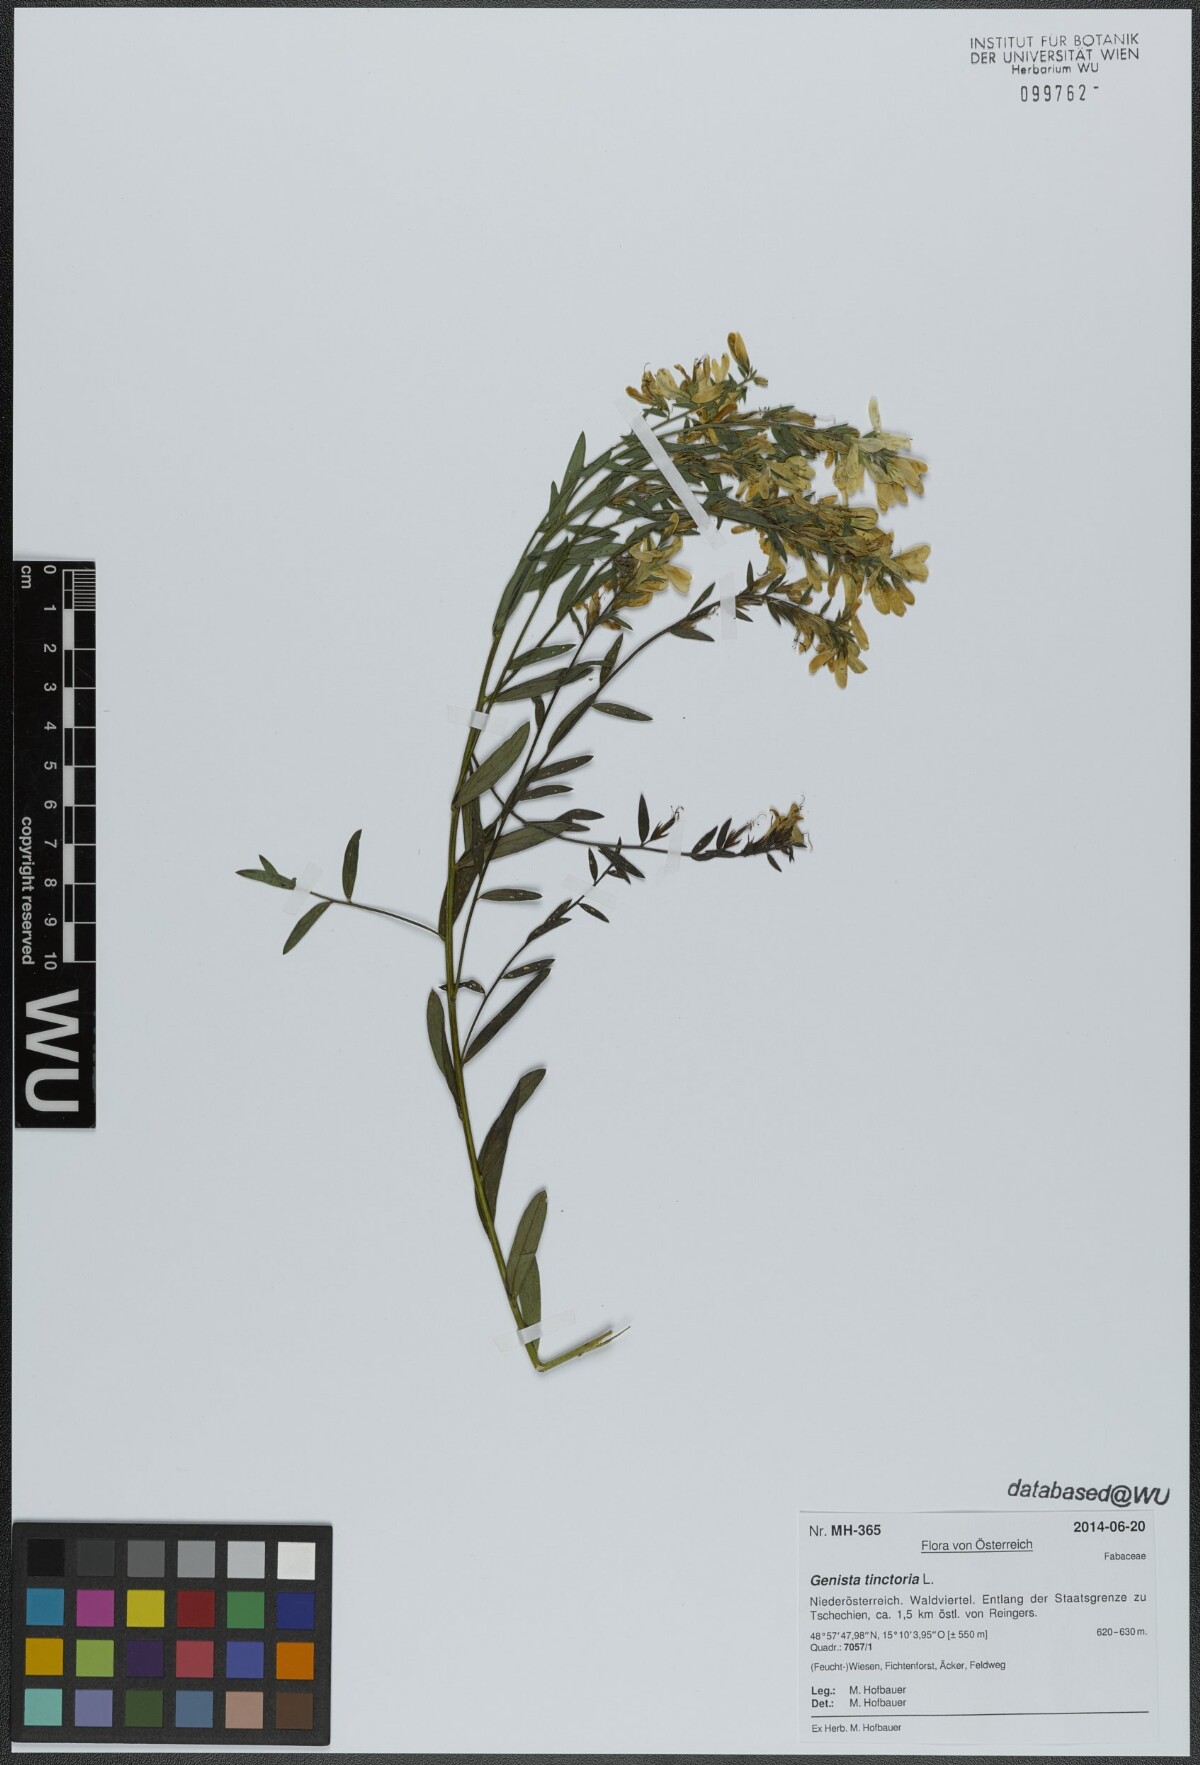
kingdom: Plantae
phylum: Tracheophyta
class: Magnoliopsida
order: Fabales
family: Fabaceae
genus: Genista
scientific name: Genista tinctoria
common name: Dyer's greenweed
